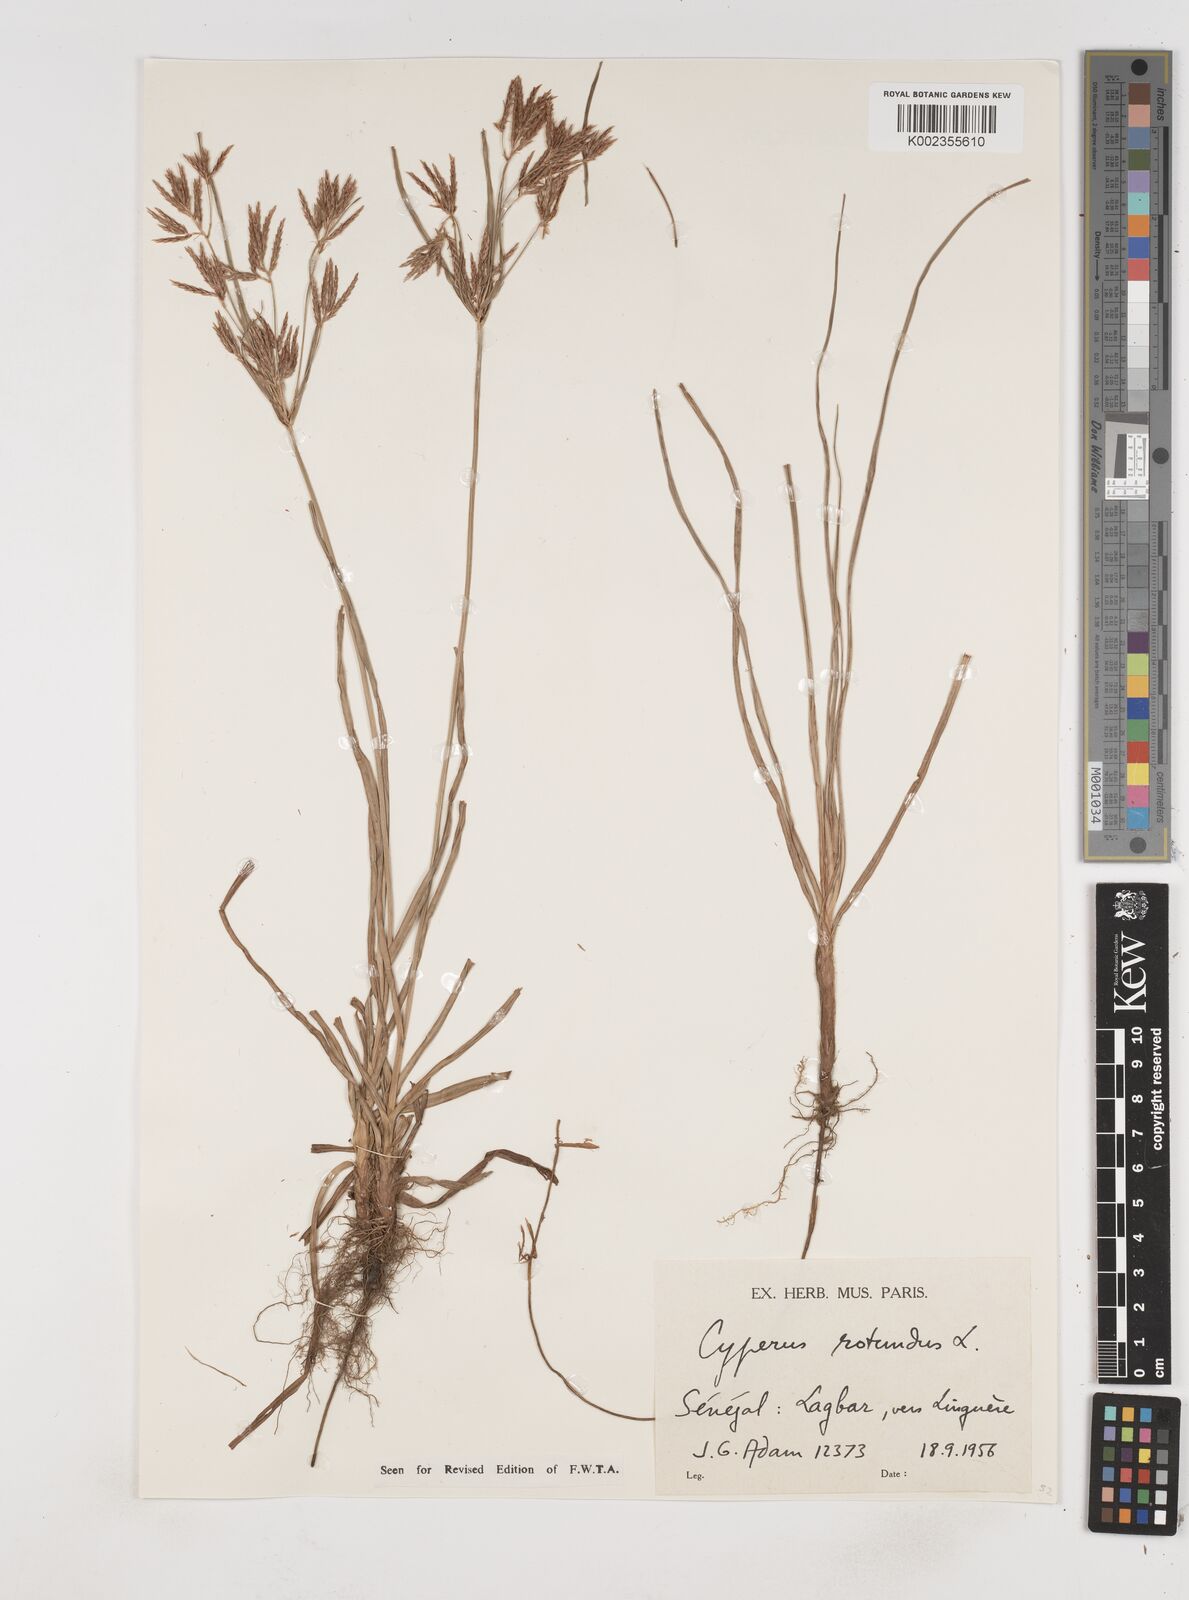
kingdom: Plantae
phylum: Tracheophyta
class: Liliopsida
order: Poales
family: Cyperaceae
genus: Cyperus
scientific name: Cyperus rotundus
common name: Nutgrass
